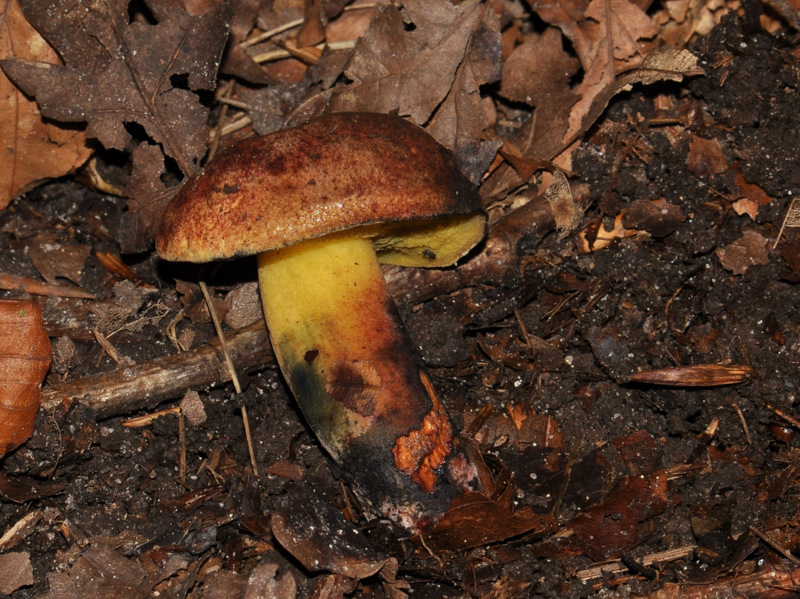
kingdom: Fungi
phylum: Basidiomycota
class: Agaricomycetes
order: Boletales
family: Boletaceae
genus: Cyanoboletus
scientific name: Cyanoboletus pulverulentus
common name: sortblånende rørhat
